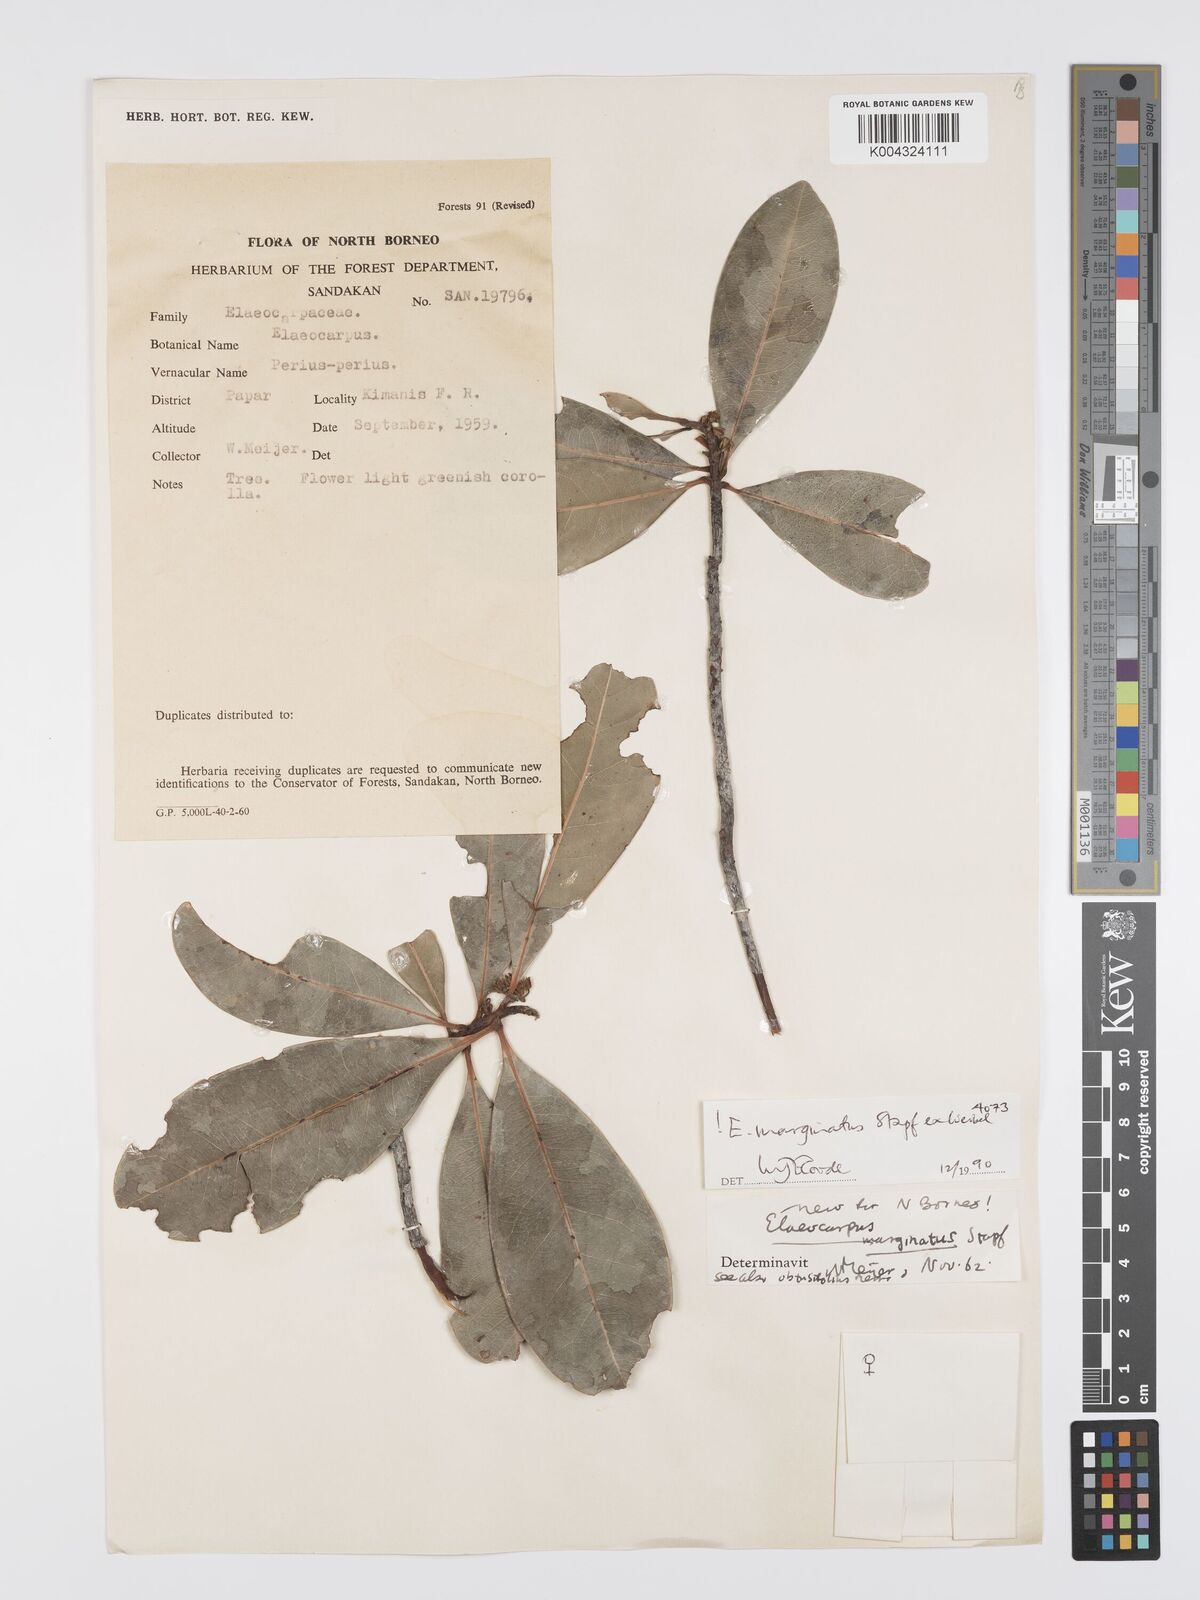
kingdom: Plantae
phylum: Tracheophyta
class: Magnoliopsida
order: Oxalidales
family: Elaeocarpaceae
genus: Elaeocarpus
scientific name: Elaeocarpus marginatus
